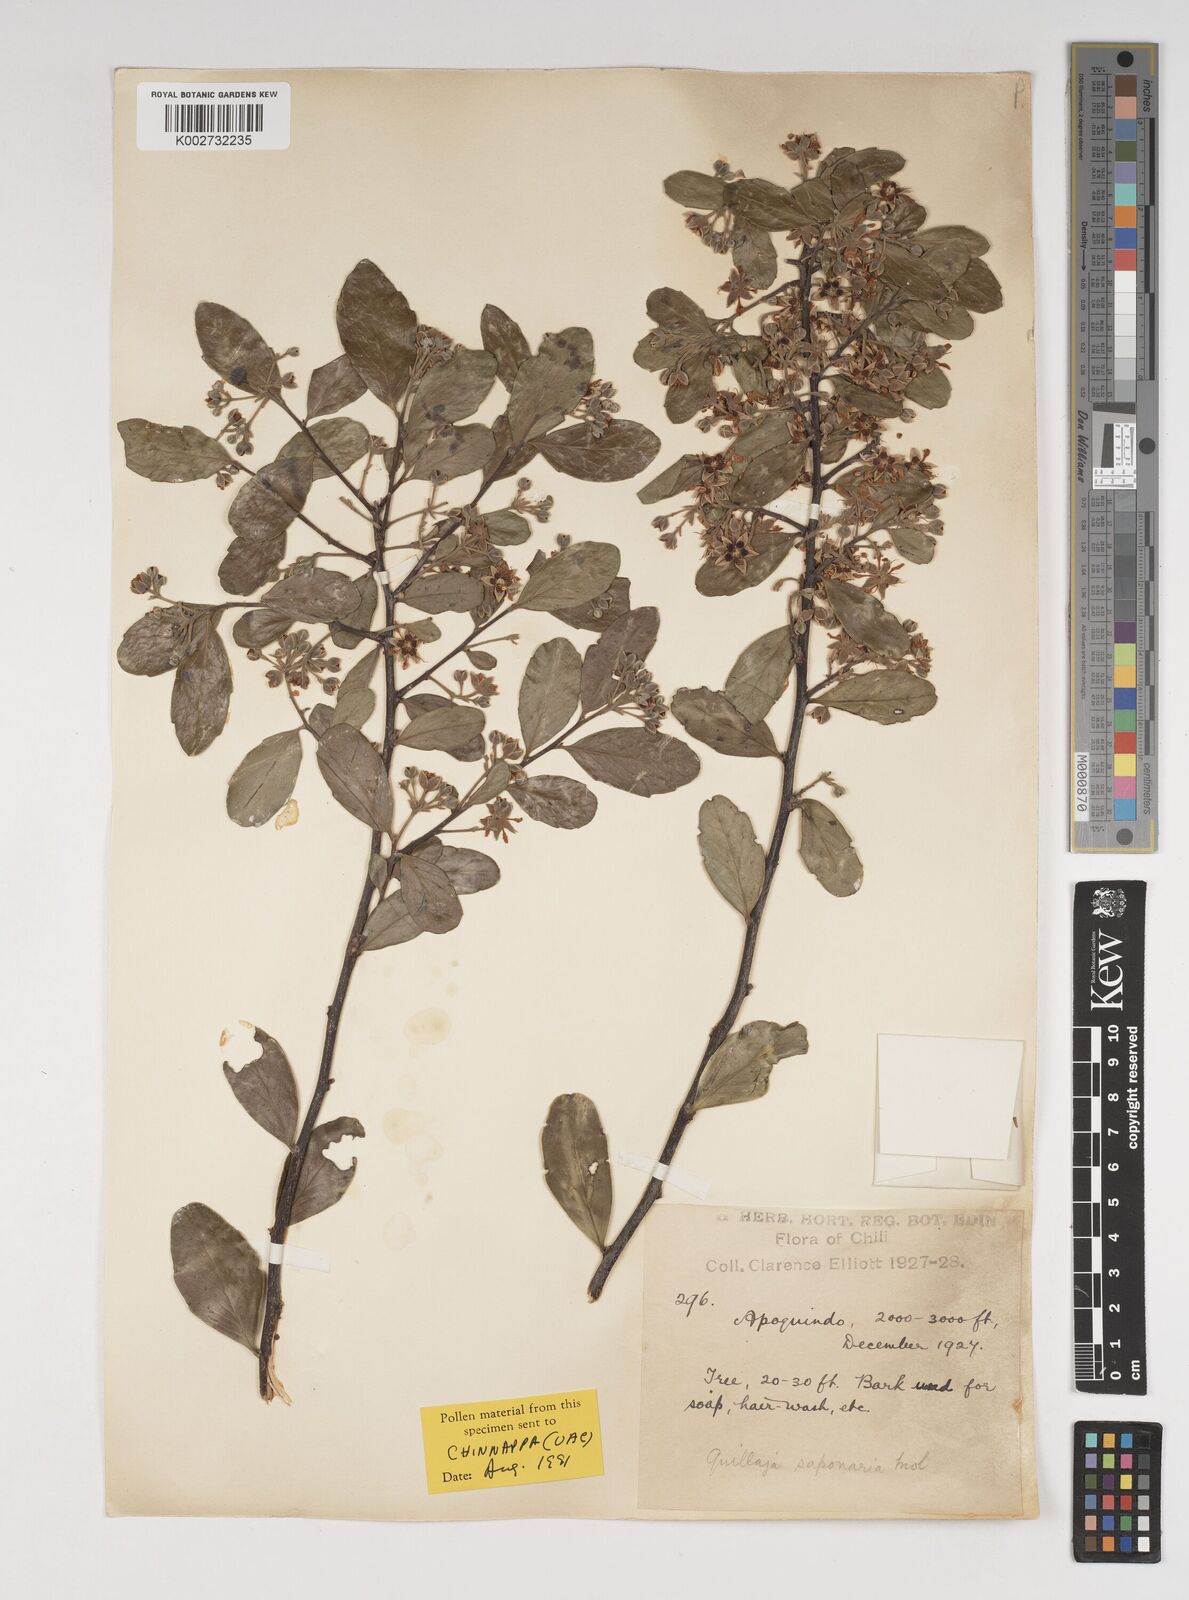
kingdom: Plantae
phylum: Tracheophyta
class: Magnoliopsida
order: Fabales
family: Quillajaceae
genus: Quillaja
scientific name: Quillaja saponaria
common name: Murillo's-bark
